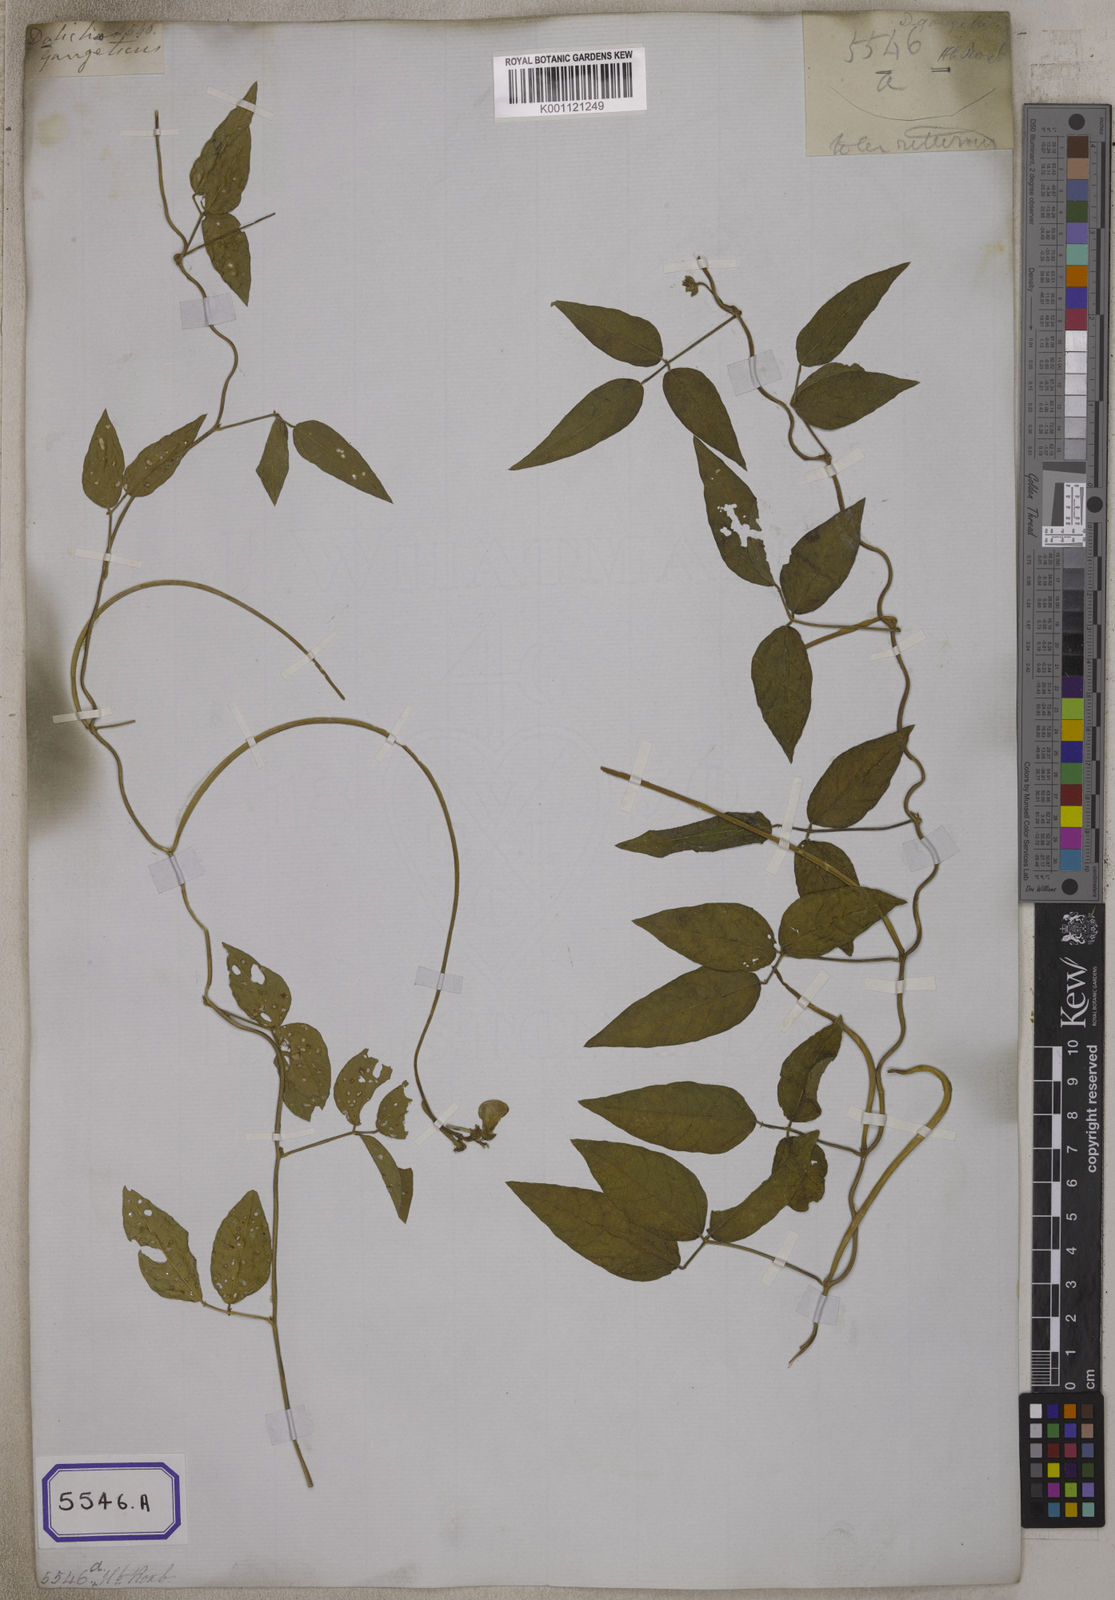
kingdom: Plantae
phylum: Tracheophyta
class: Magnoliopsida
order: Fabales
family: Fabaceae
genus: Vigna
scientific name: Vigna luteola
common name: Hairypod cowpea
